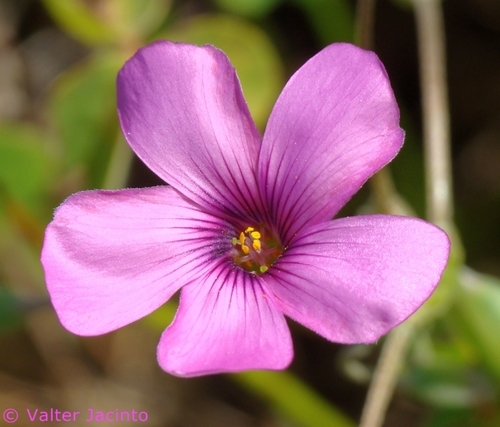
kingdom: Plantae
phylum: Tracheophyta
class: Magnoliopsida
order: Oxalidales
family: Oxalidaceae
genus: Oxalis
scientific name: Oxalis articulata
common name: Pink-sorrel
